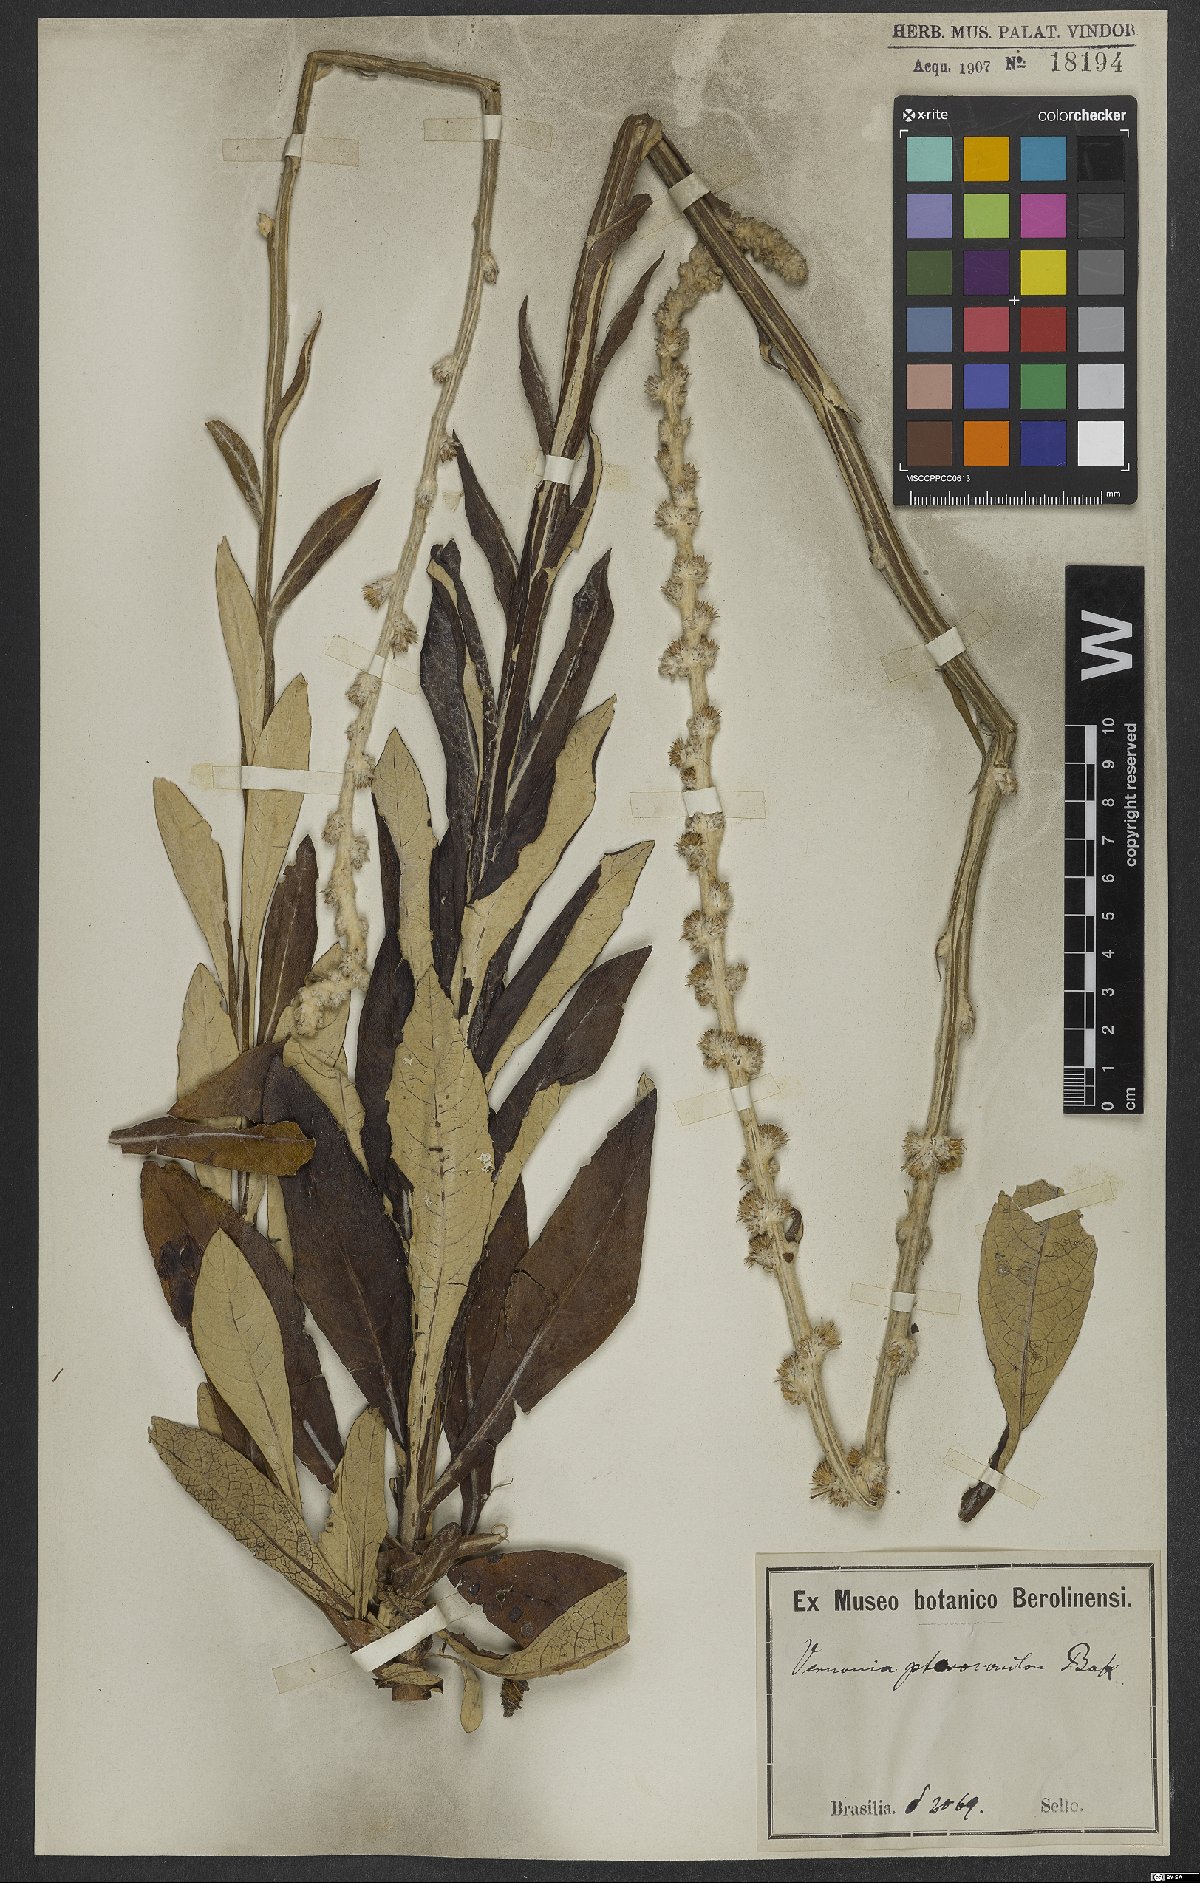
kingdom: Plantae
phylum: Tracheophyta
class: Magnoliopsida
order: Asterales
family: Asteraceae
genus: Pterocaulon
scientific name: Pterocaulon polypterum
